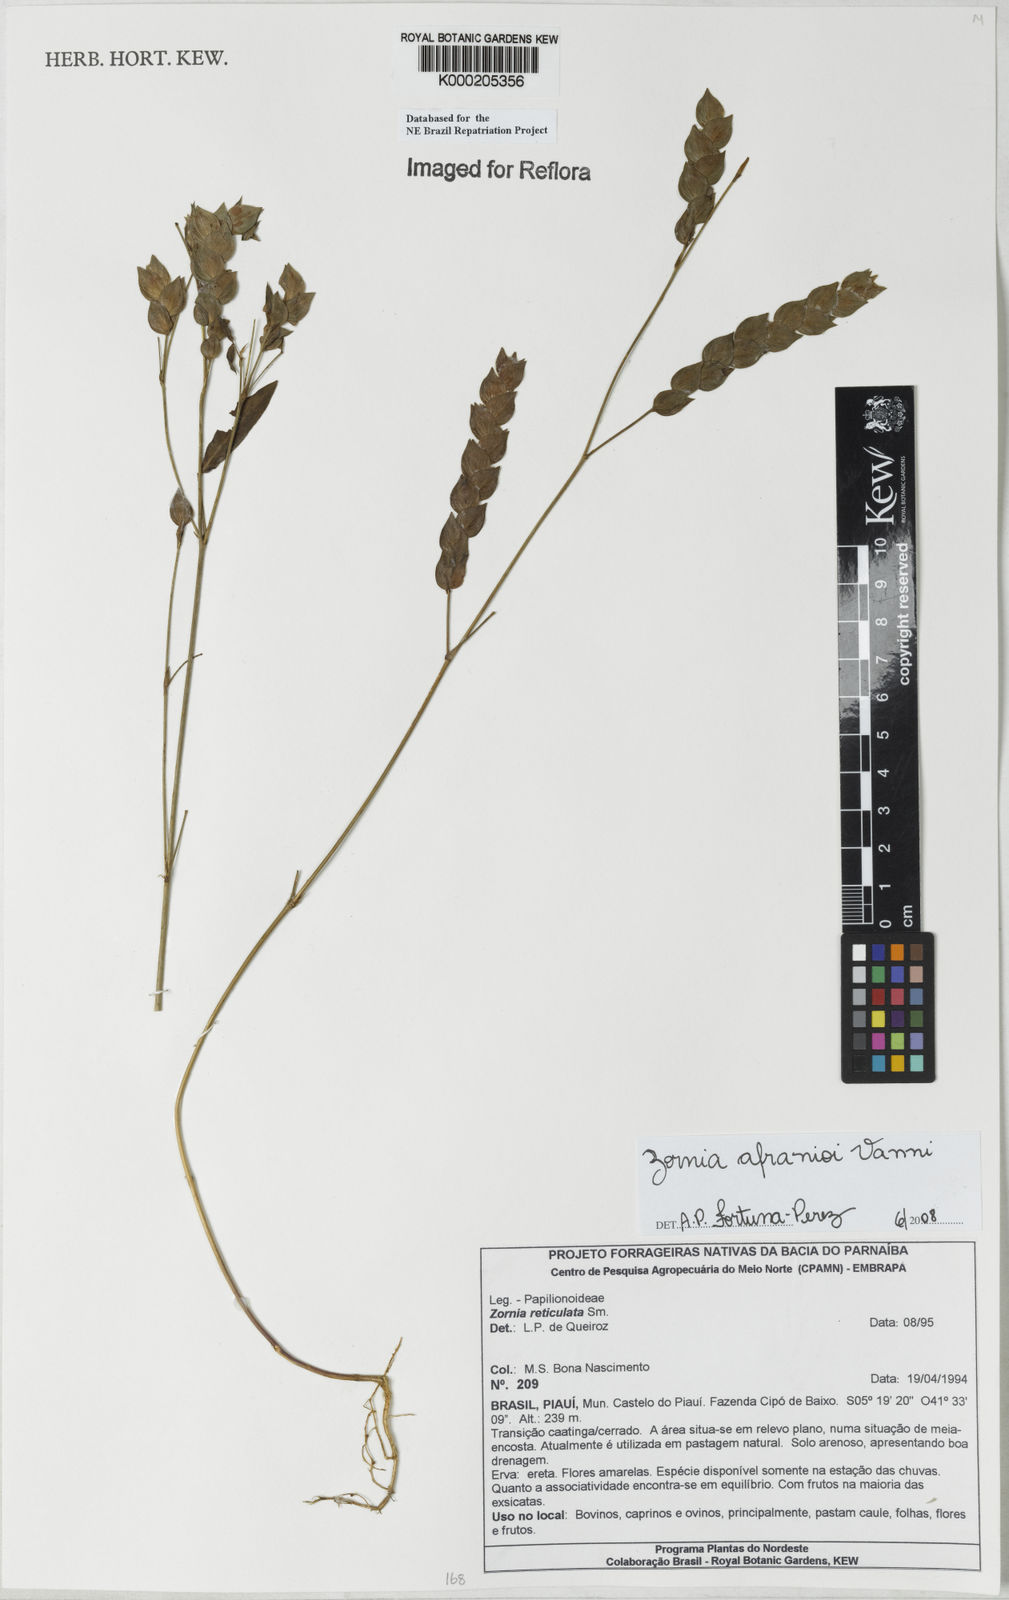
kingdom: Plantae
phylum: Tracheophyta
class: Magnoliopsida
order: Fabales
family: Fabaceae
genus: Zornia
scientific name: Zornia afranioi
